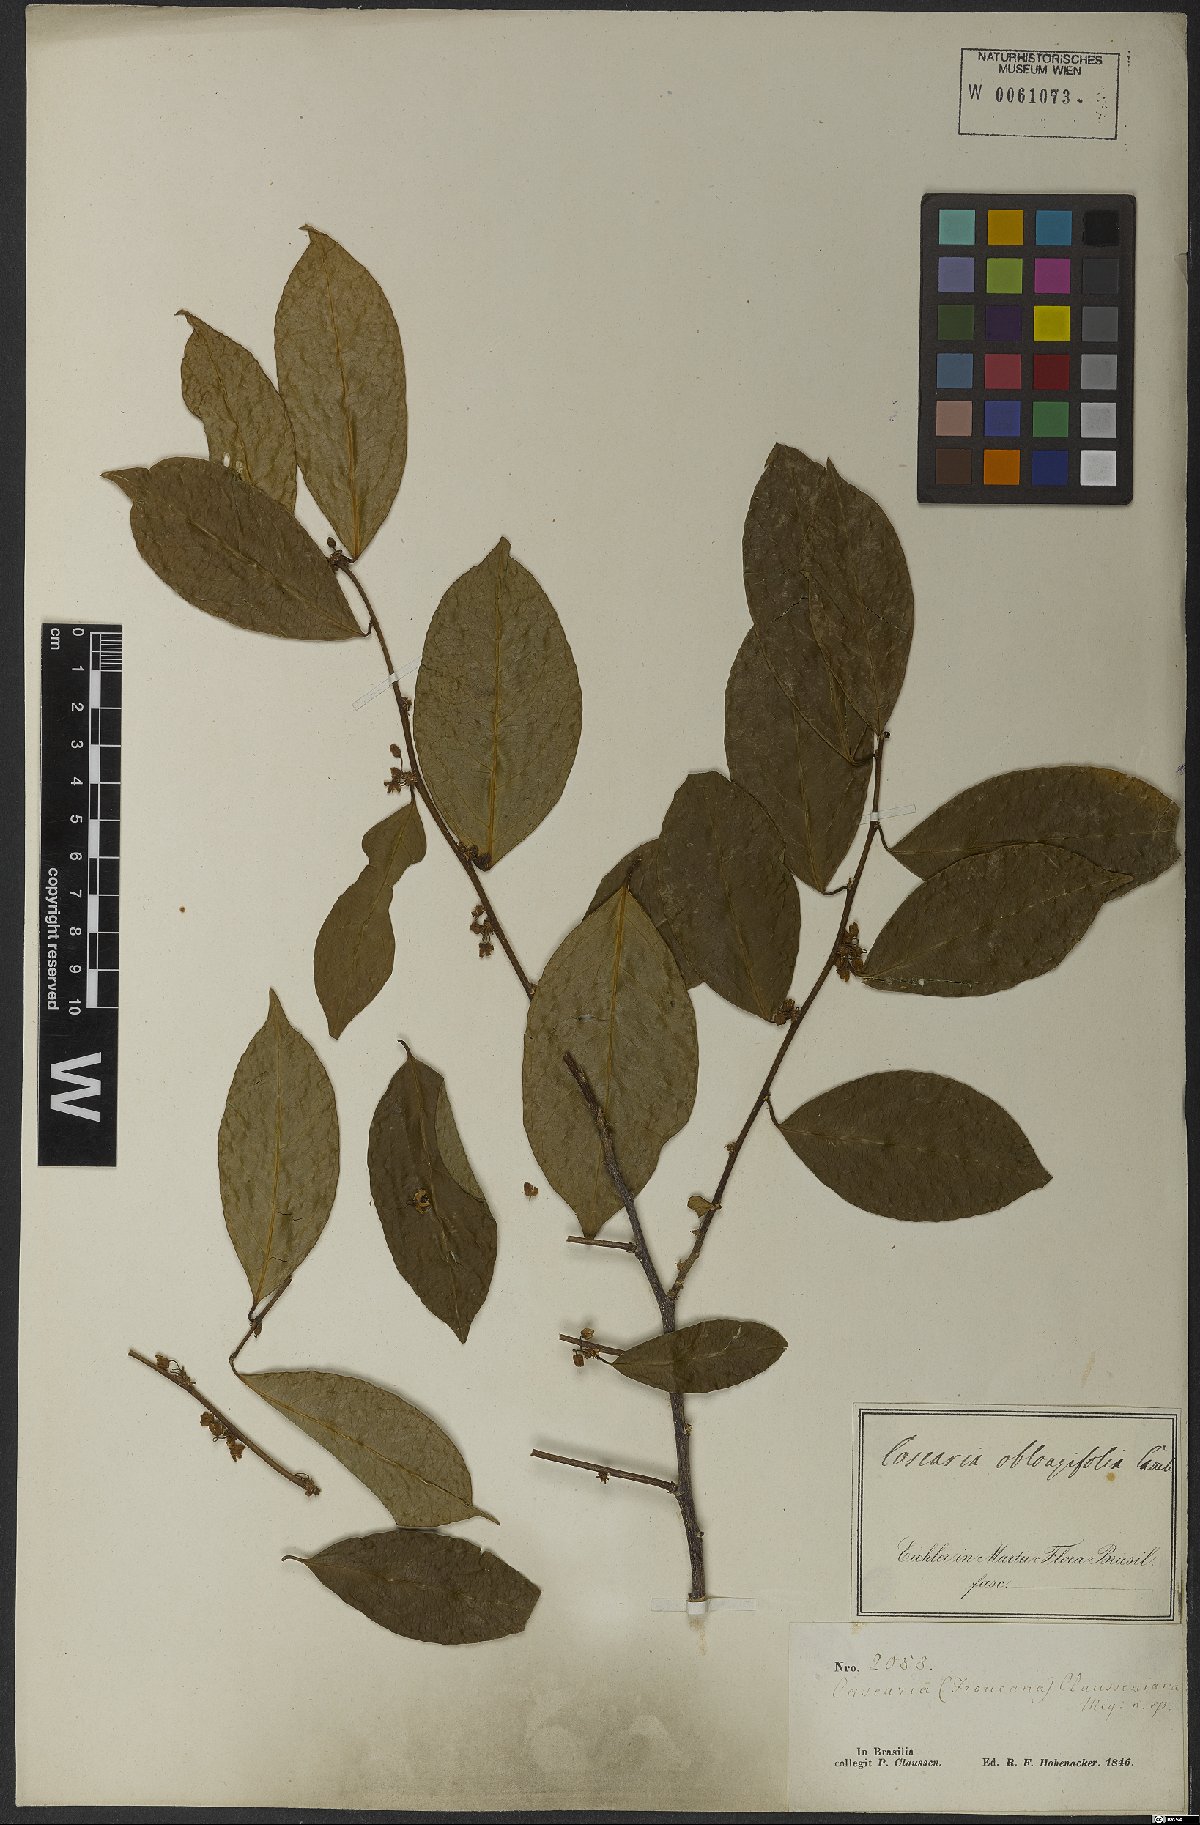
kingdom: Plantae
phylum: Tracheophyta
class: Magnoliopsida
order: Malpighiales
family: Salicaceae
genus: Casearia
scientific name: Casearia oblongifolia
